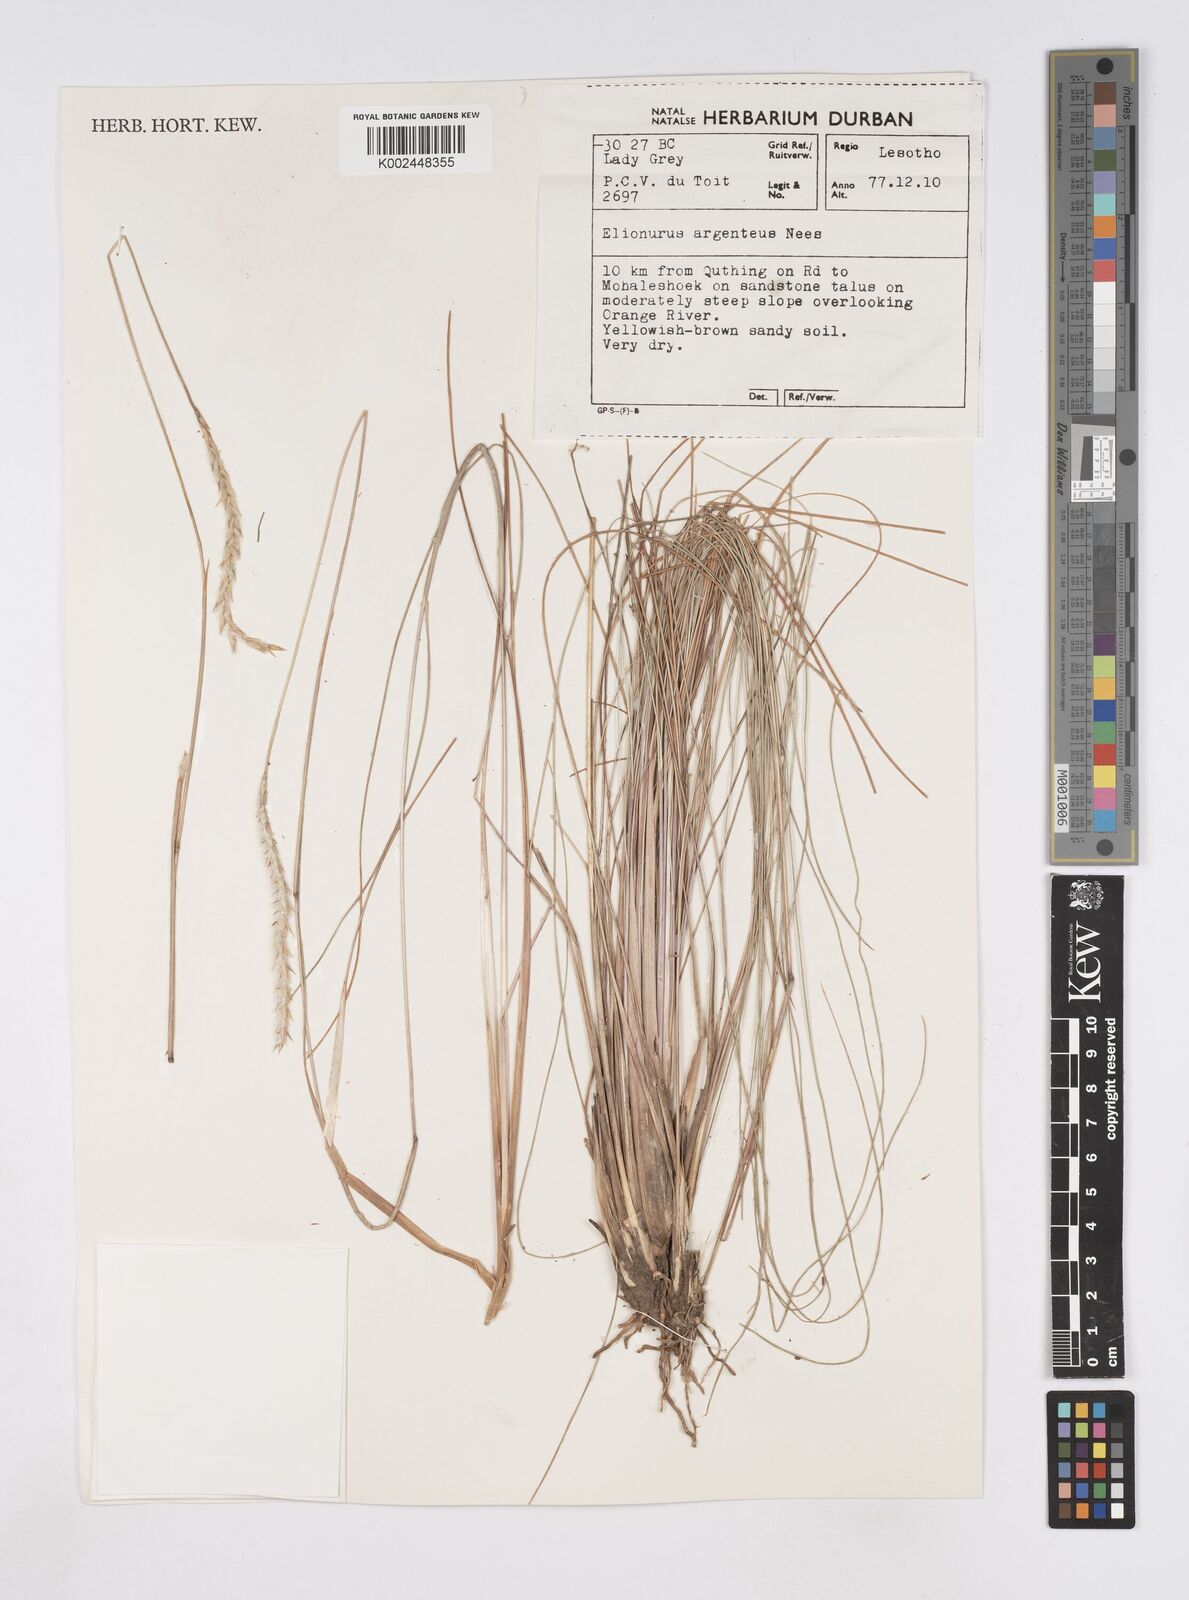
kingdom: Plantae
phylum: Tracheophyta
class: Liliopsida
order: Poales
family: Poaceae
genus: Elionurus
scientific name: Elionurus muticus
